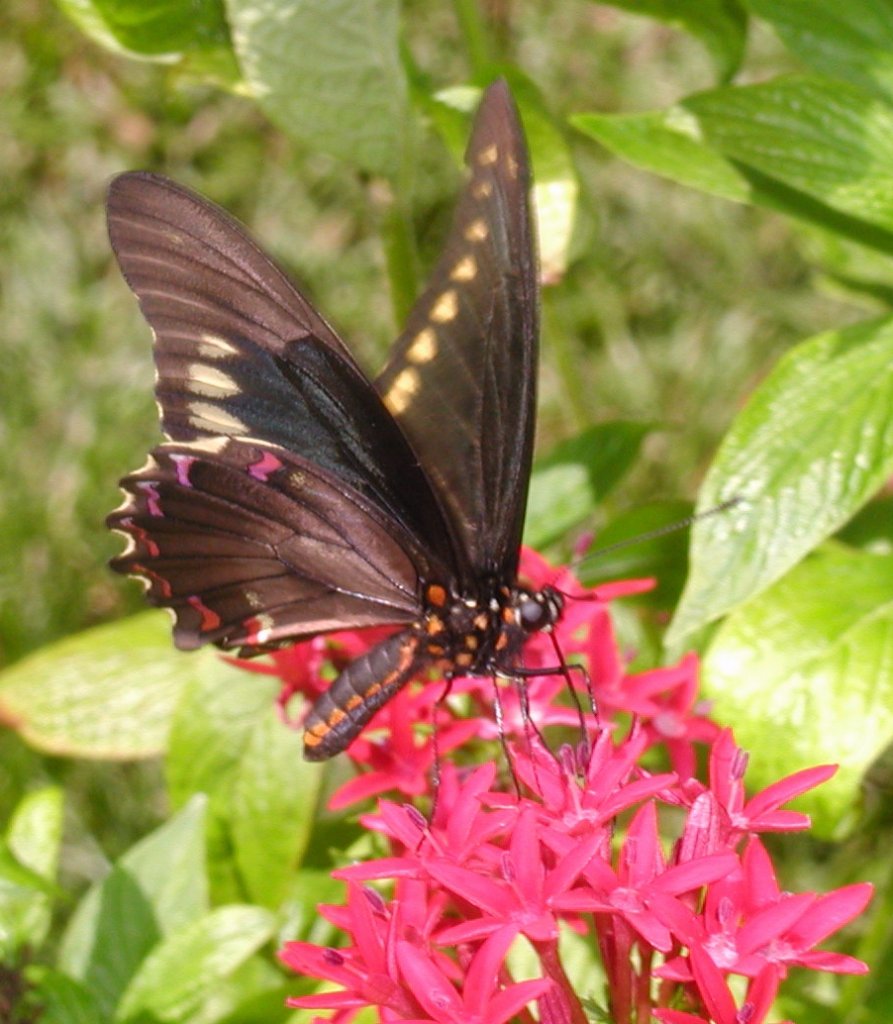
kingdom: Animalia
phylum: Arthropoda
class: Insecta
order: Lepidoptera
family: Papilionidae
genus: Battus
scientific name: Battus polydamas
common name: Polydamas Swallowtail
